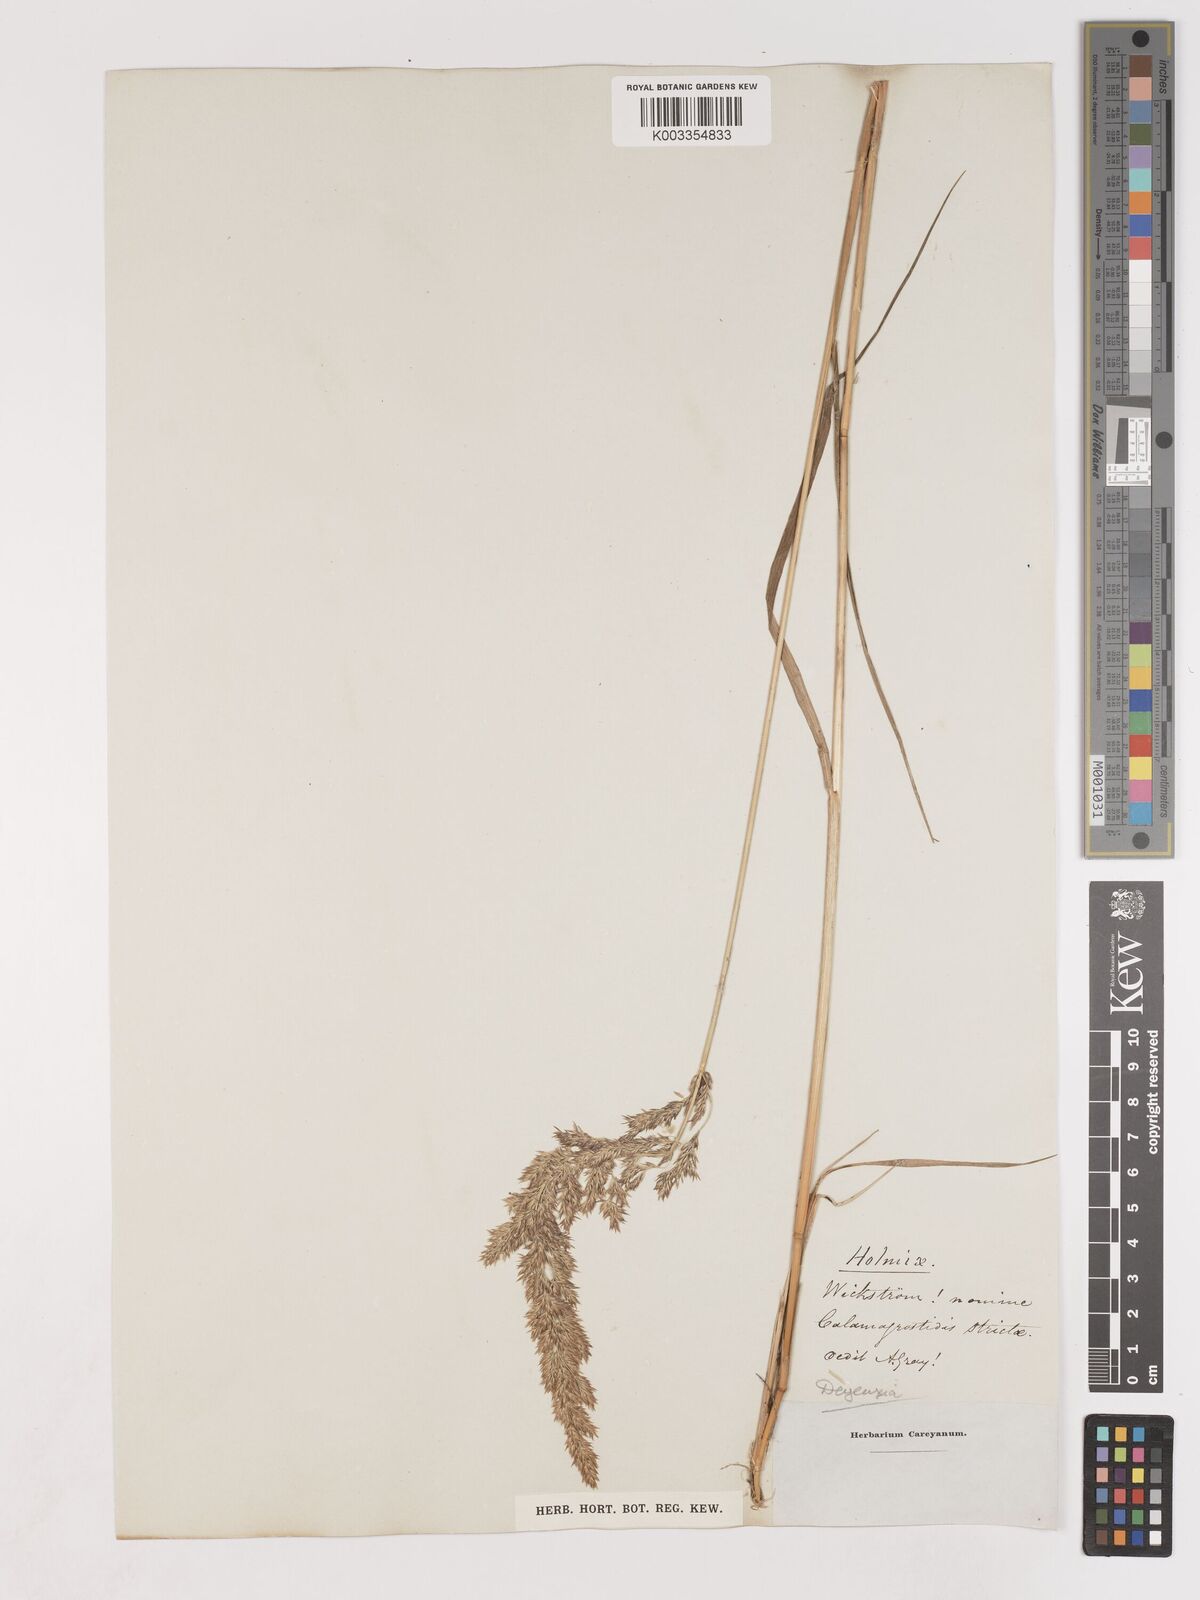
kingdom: Plantae
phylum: Tracheophyta
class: Liliopsida
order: Poales
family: Poaceae
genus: Calamagrostis
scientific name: Calamagrostis
